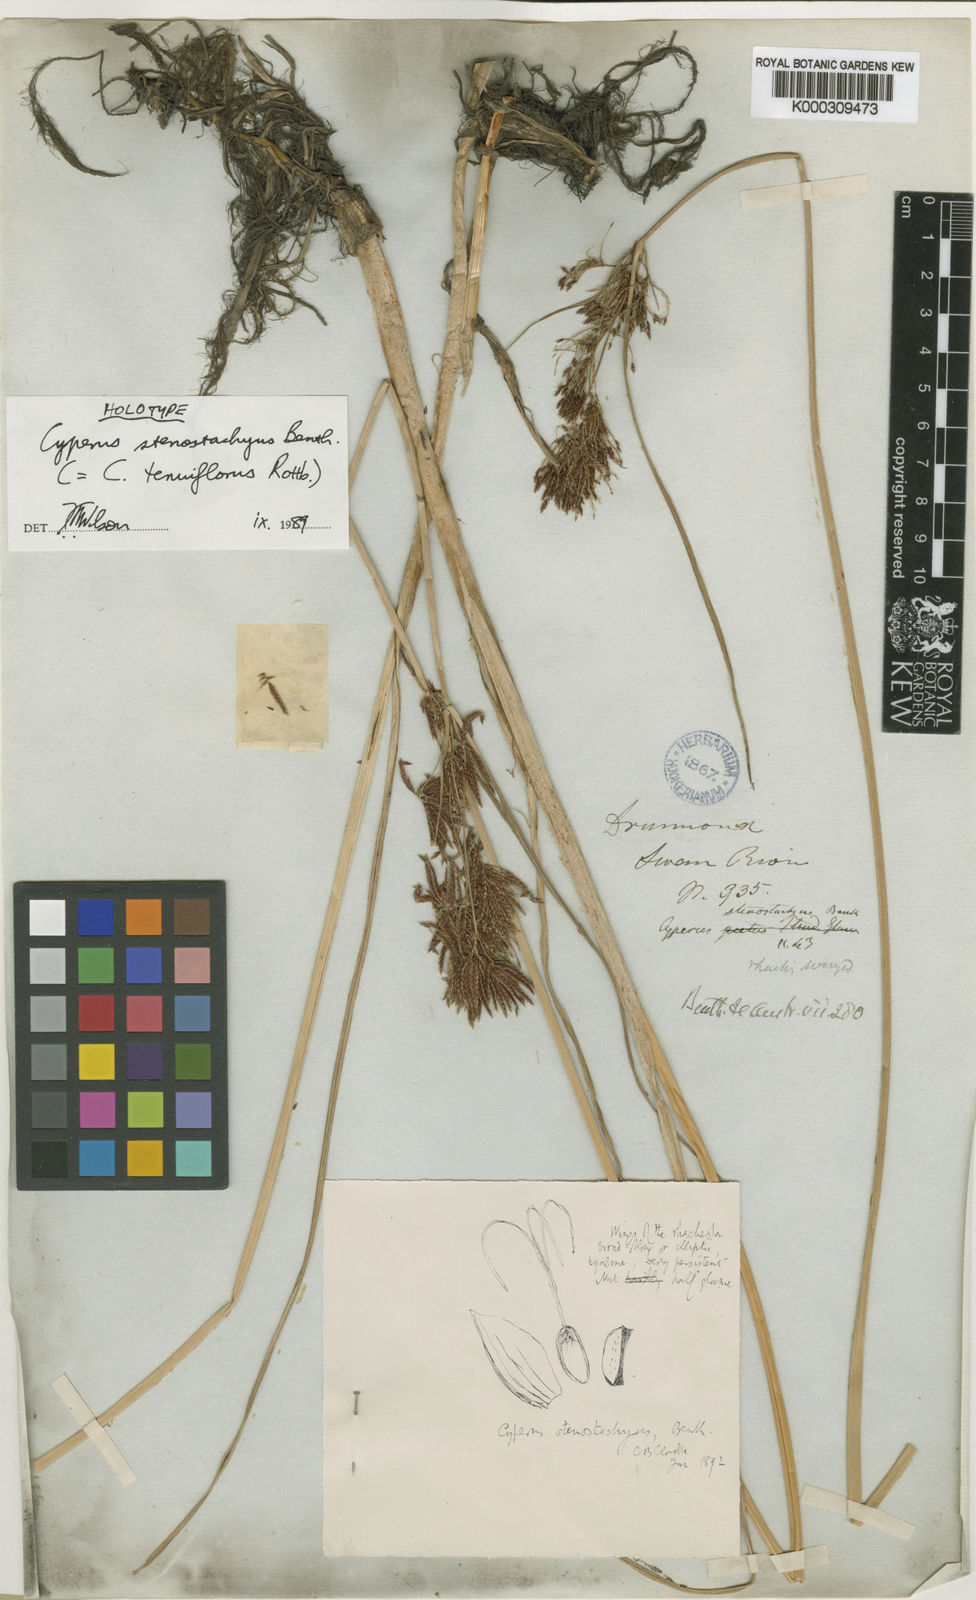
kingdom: Plantae
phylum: Tracheophyta
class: Liliopsida
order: Poales
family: Cyperaceae
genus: Cyperus
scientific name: Cyperus longus
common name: Galingale
